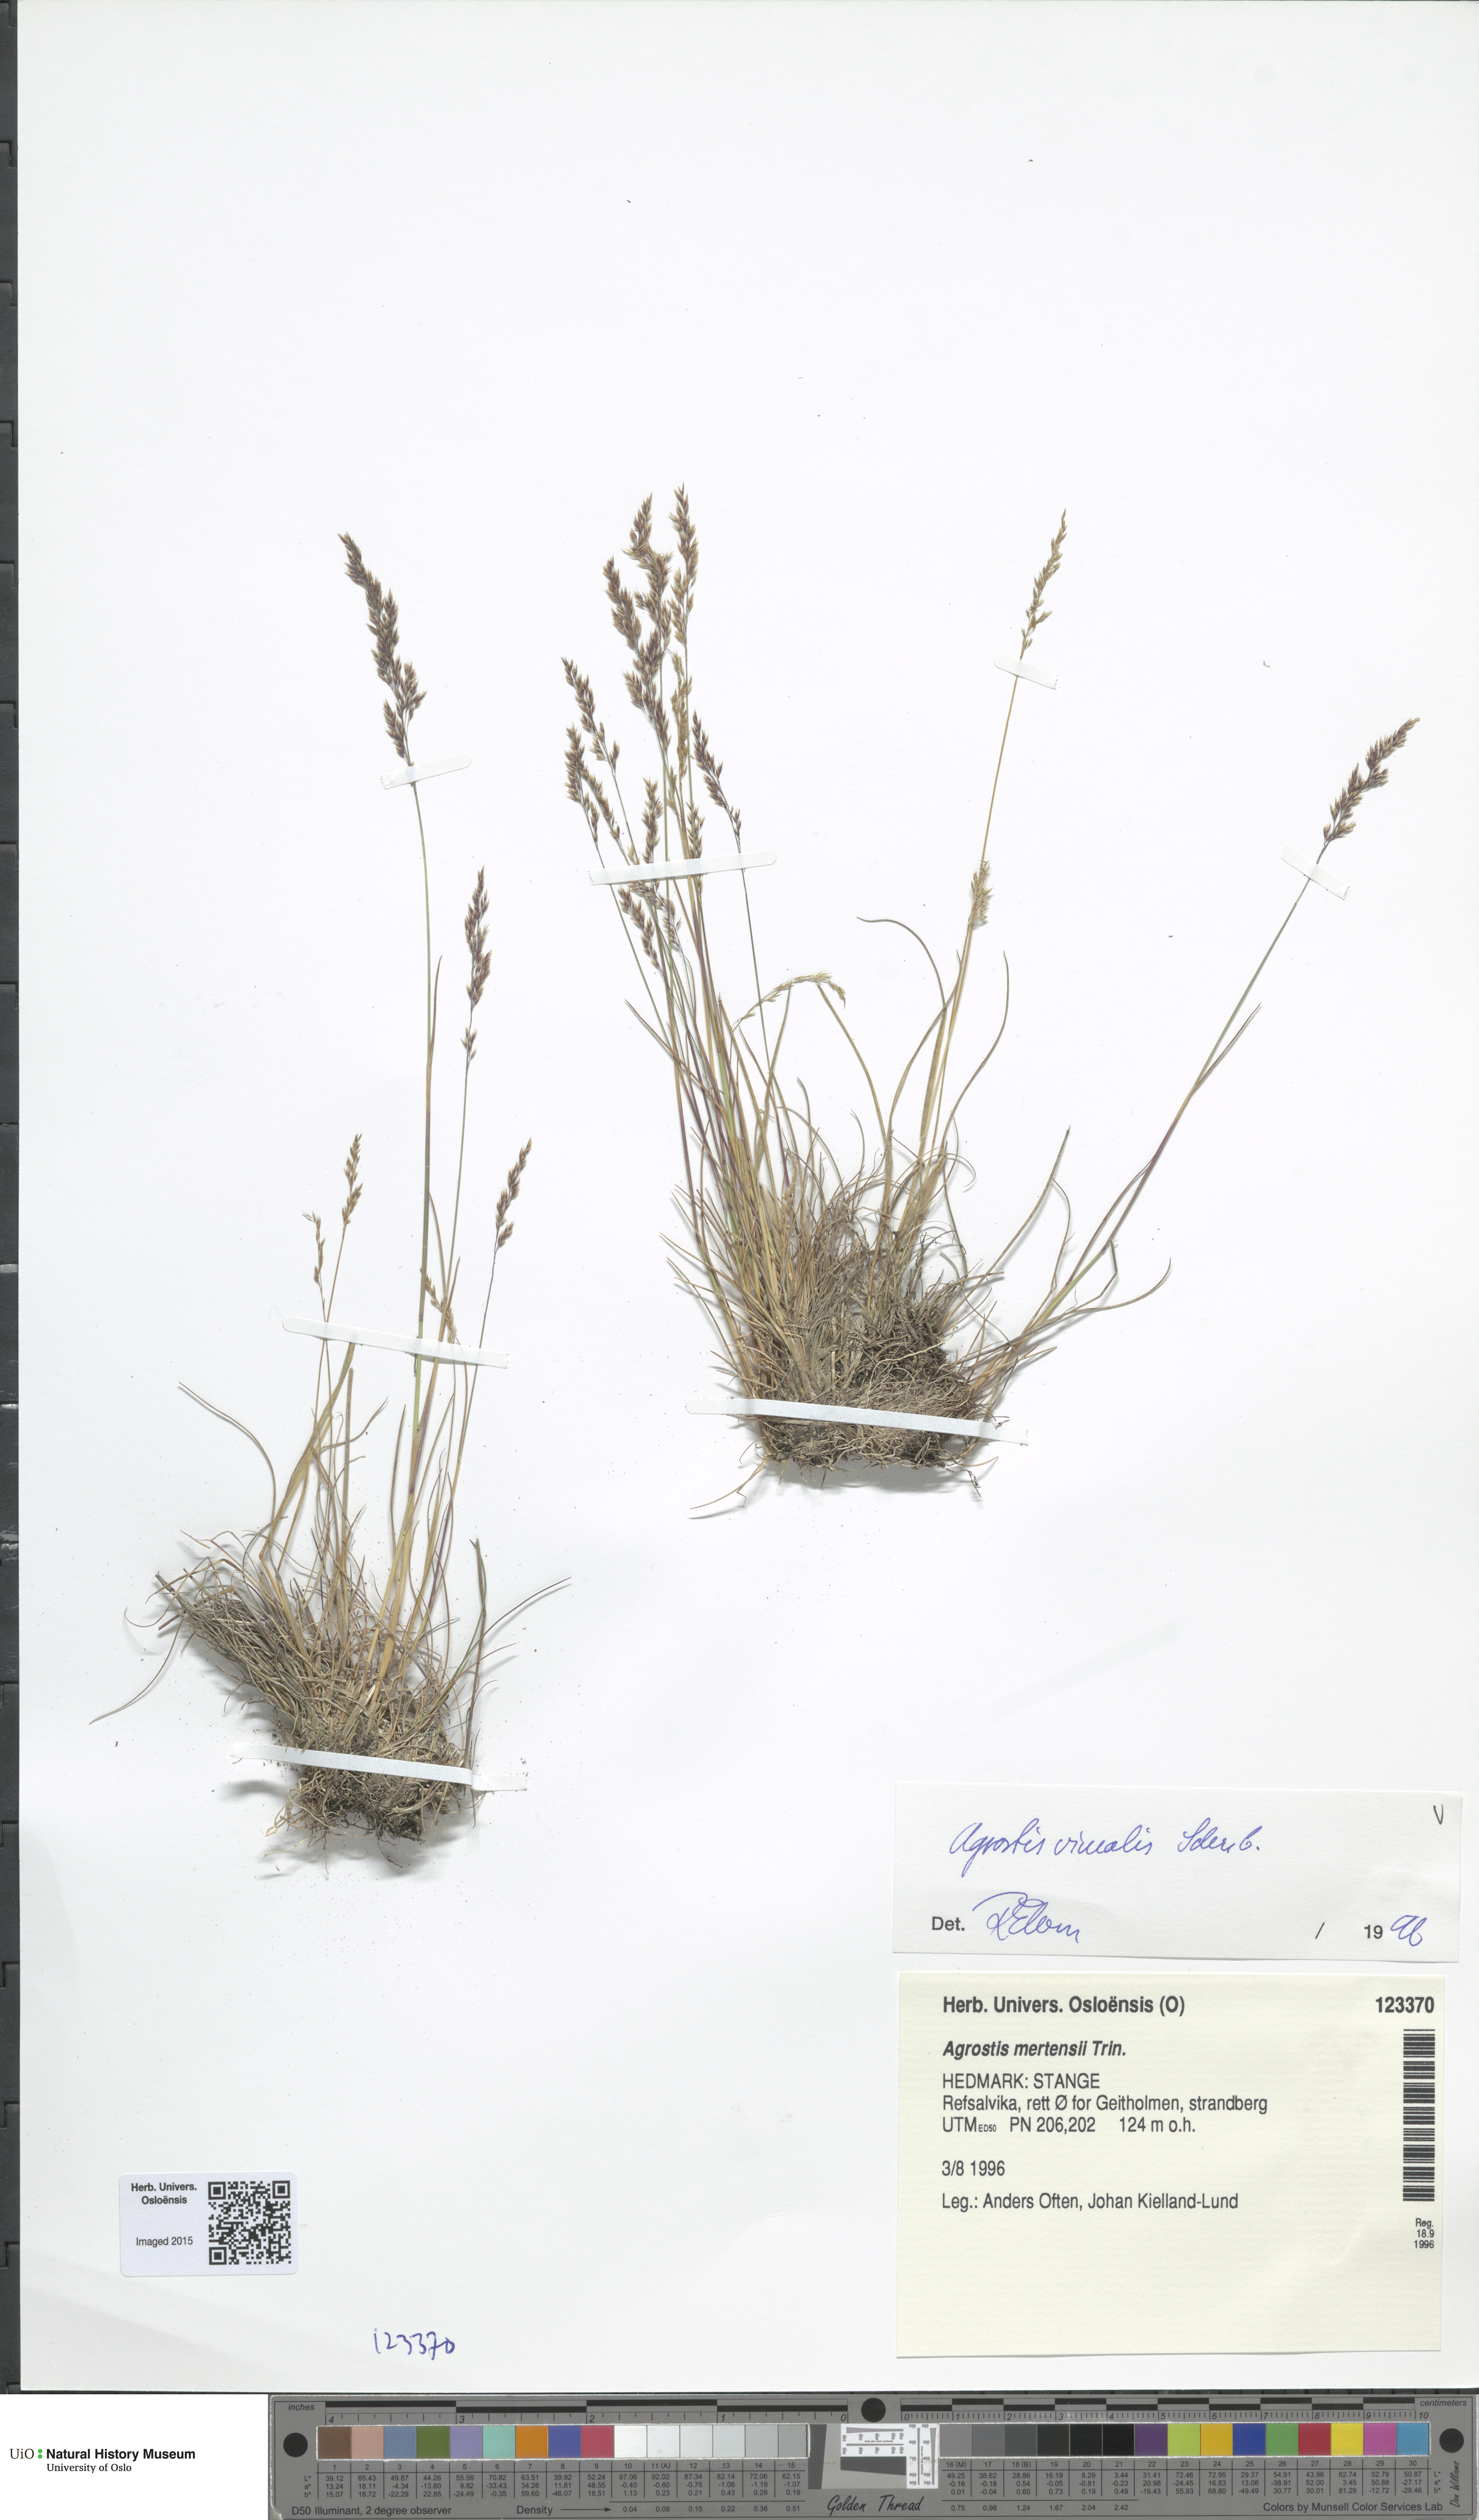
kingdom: Plantae
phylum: Tracheophyta
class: Liliopsida
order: Poales
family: Poaceae
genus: Agrostis
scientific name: Agrostis vinealis
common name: Brown bent
